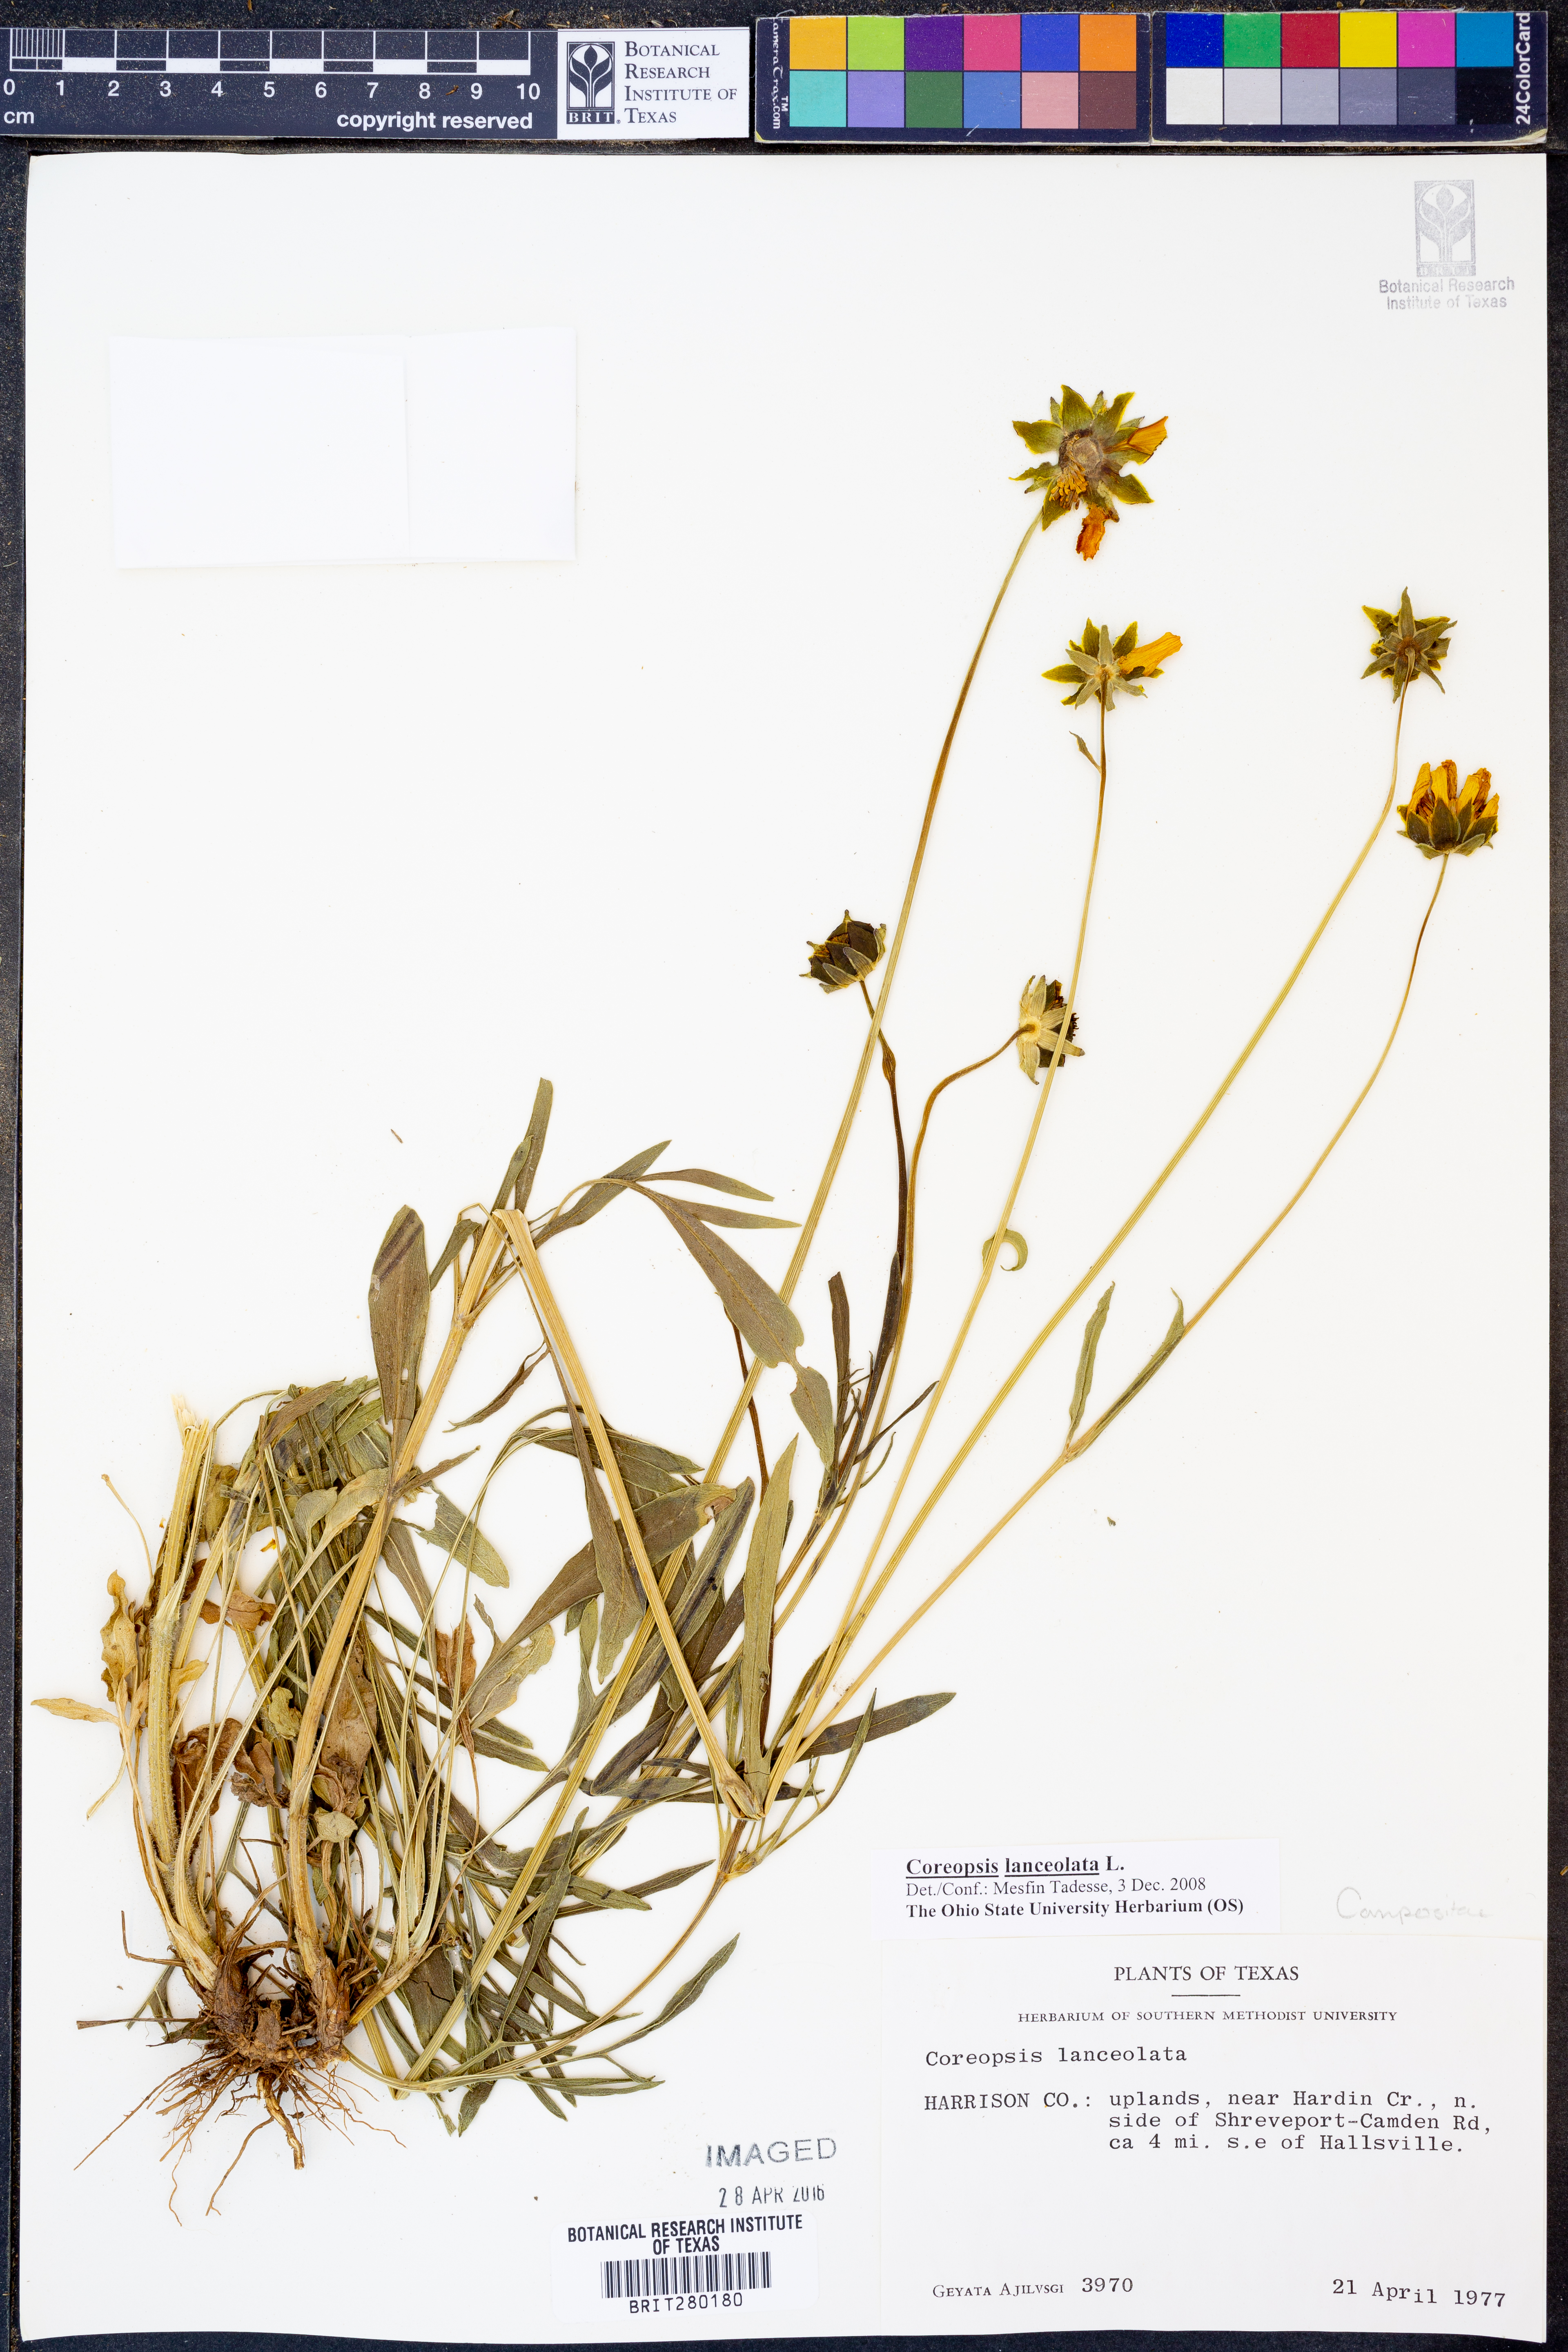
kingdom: Plantae
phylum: Tracheophyta
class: Magnoliopsida
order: Asterales
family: Asteraceae
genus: Coreopsis
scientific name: Coreopsis lanceolata
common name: Garden coreopsis
